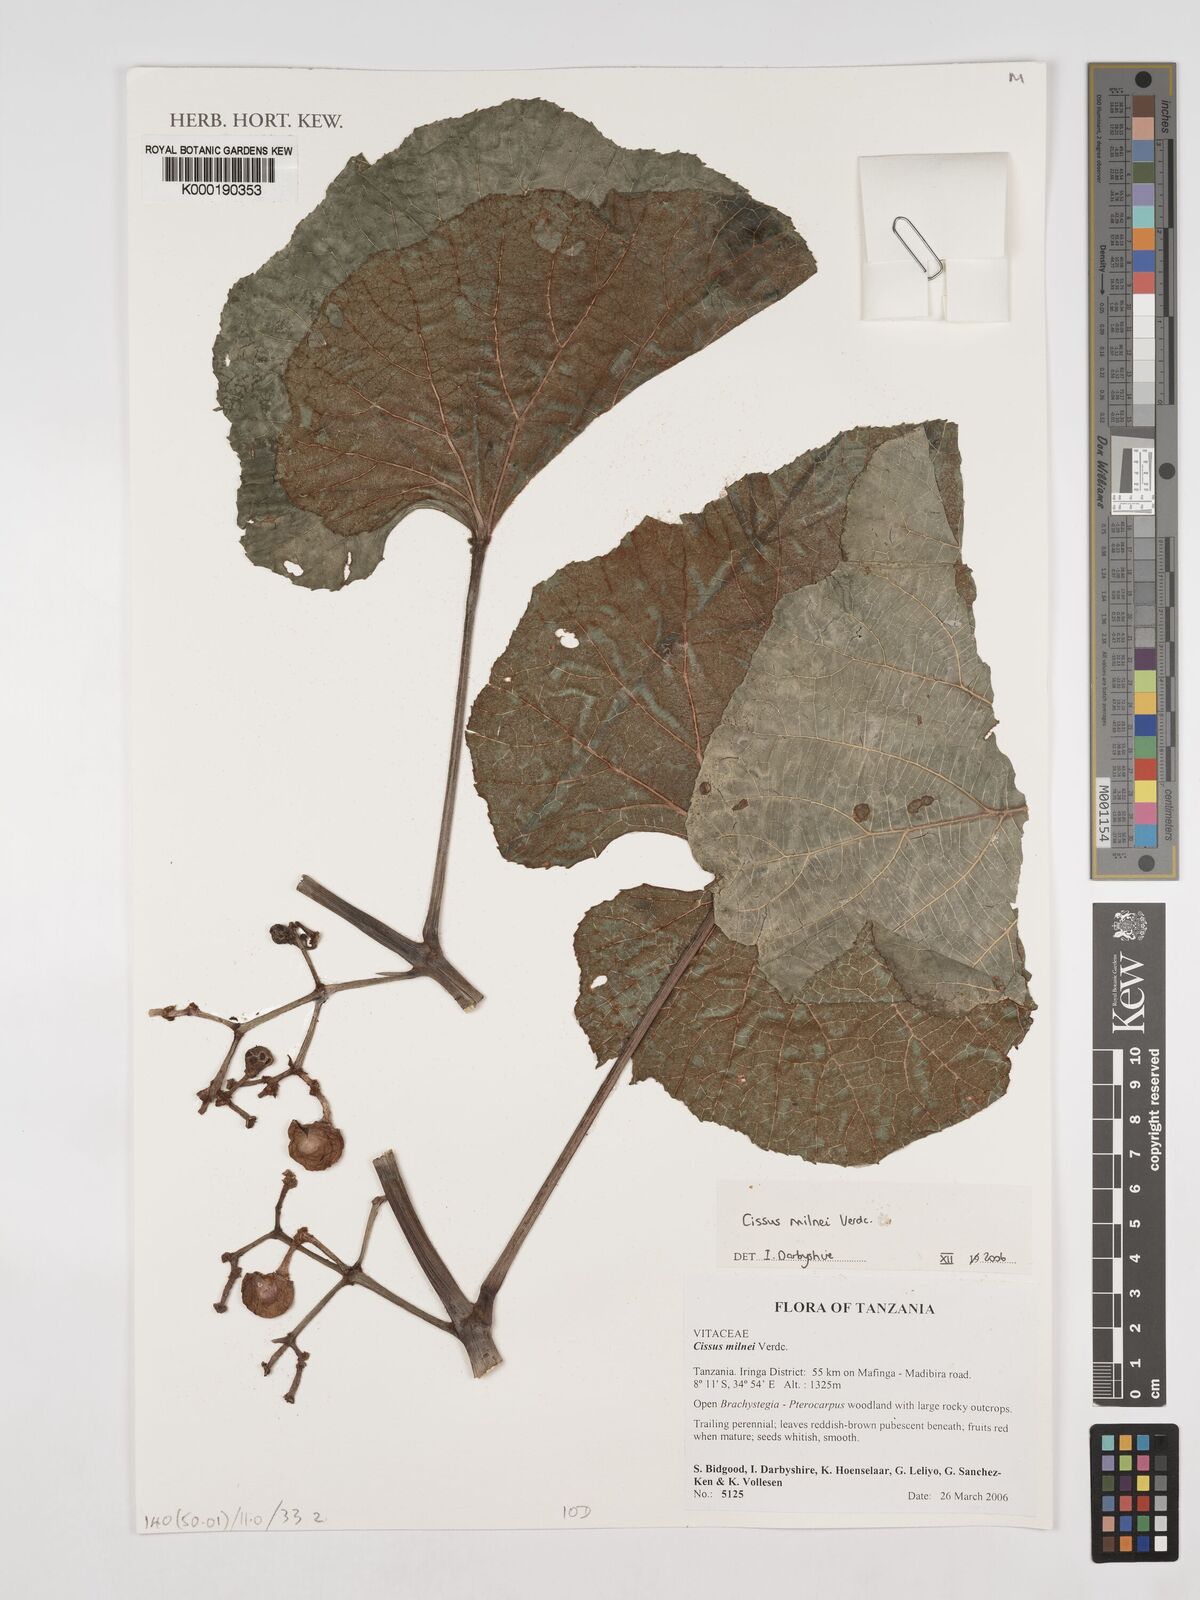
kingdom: Plantae
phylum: Tracheophyta
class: Magnoliopsida
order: Vitales
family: Vitaceae
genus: Cissus
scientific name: Cissus milnei
